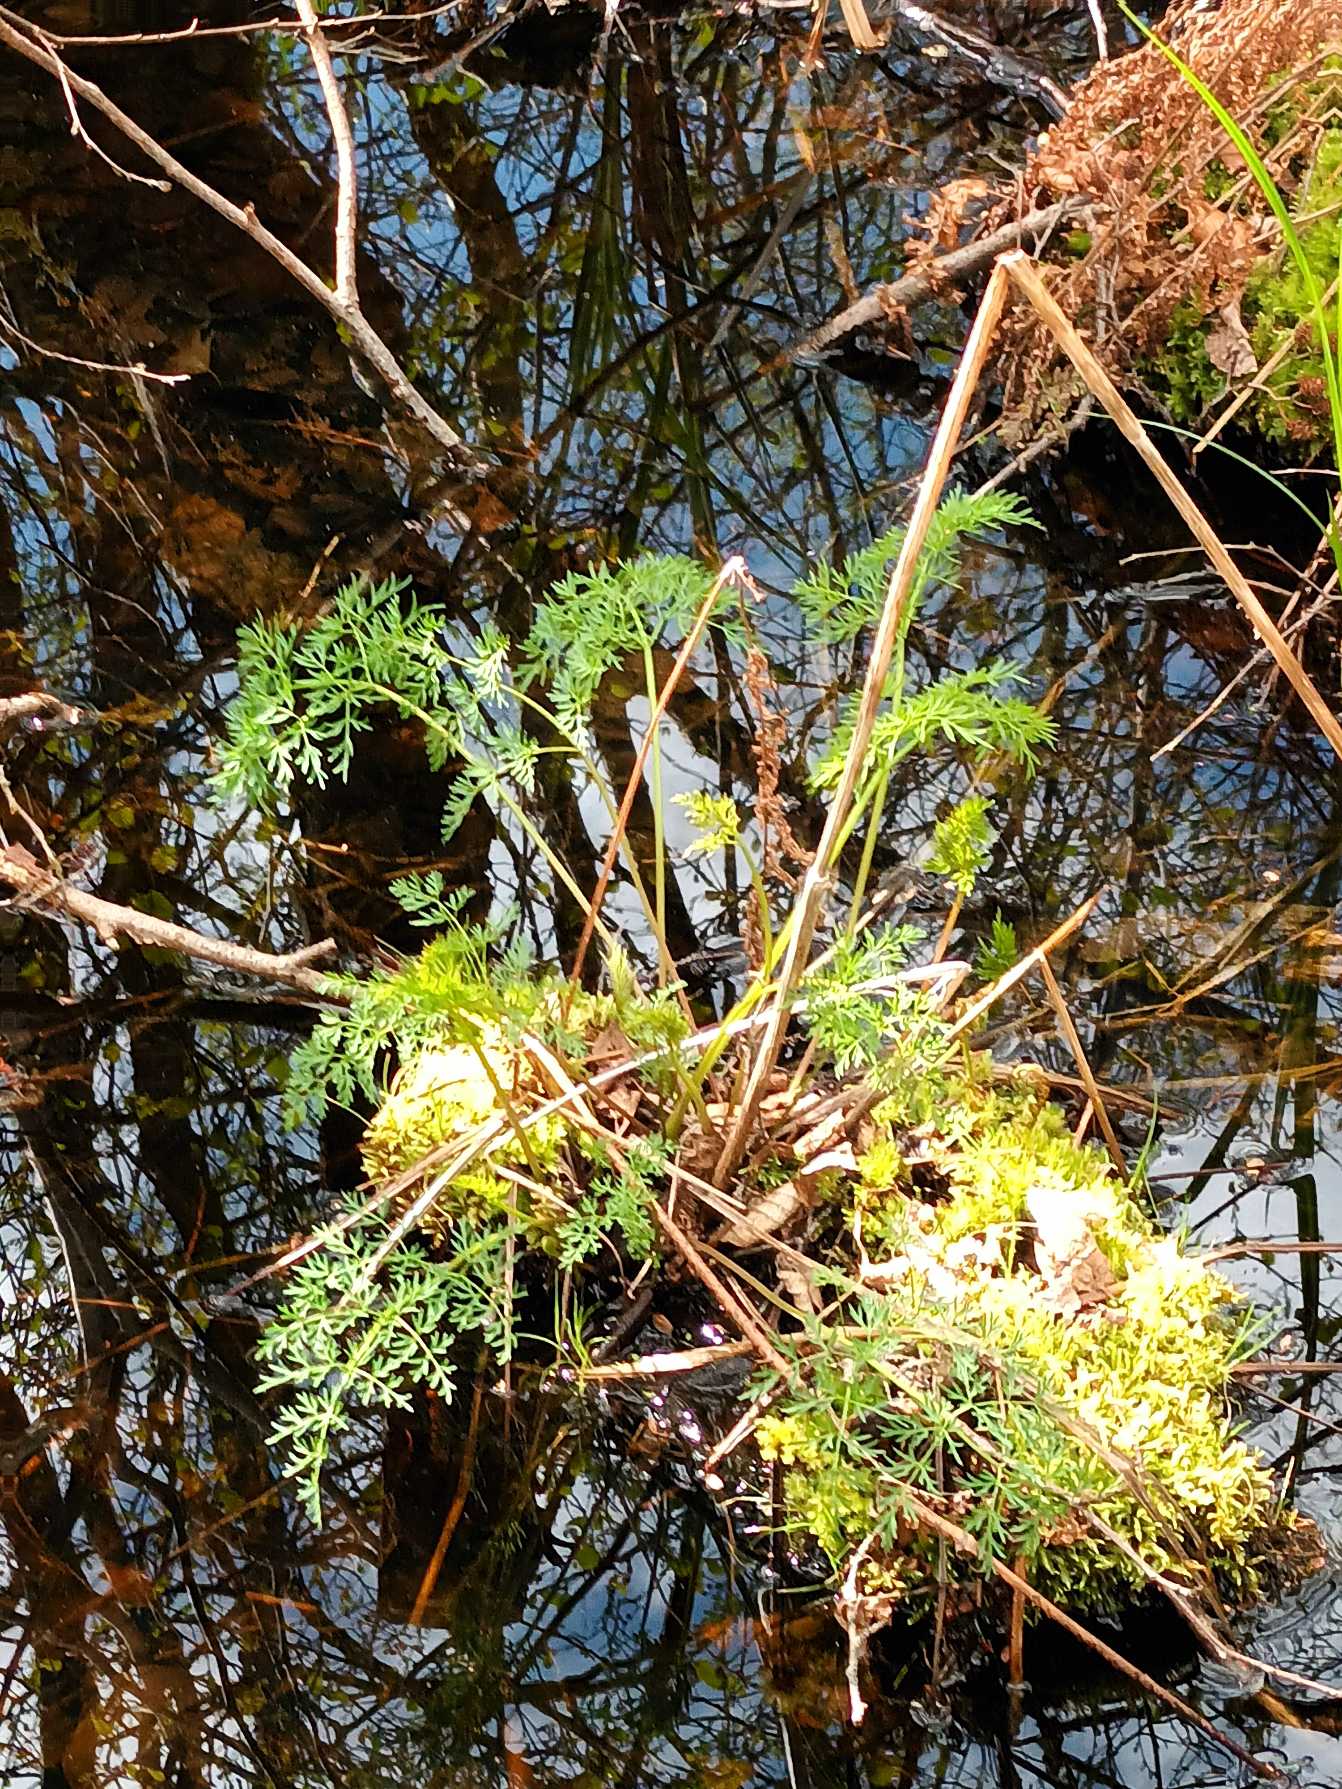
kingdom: Plantae
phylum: Tracheophyta
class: Magnoliopsida
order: Apiales
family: Apiaceae
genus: Thysselinum
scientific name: Thysselinum palustre
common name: Kær-svovlrod
